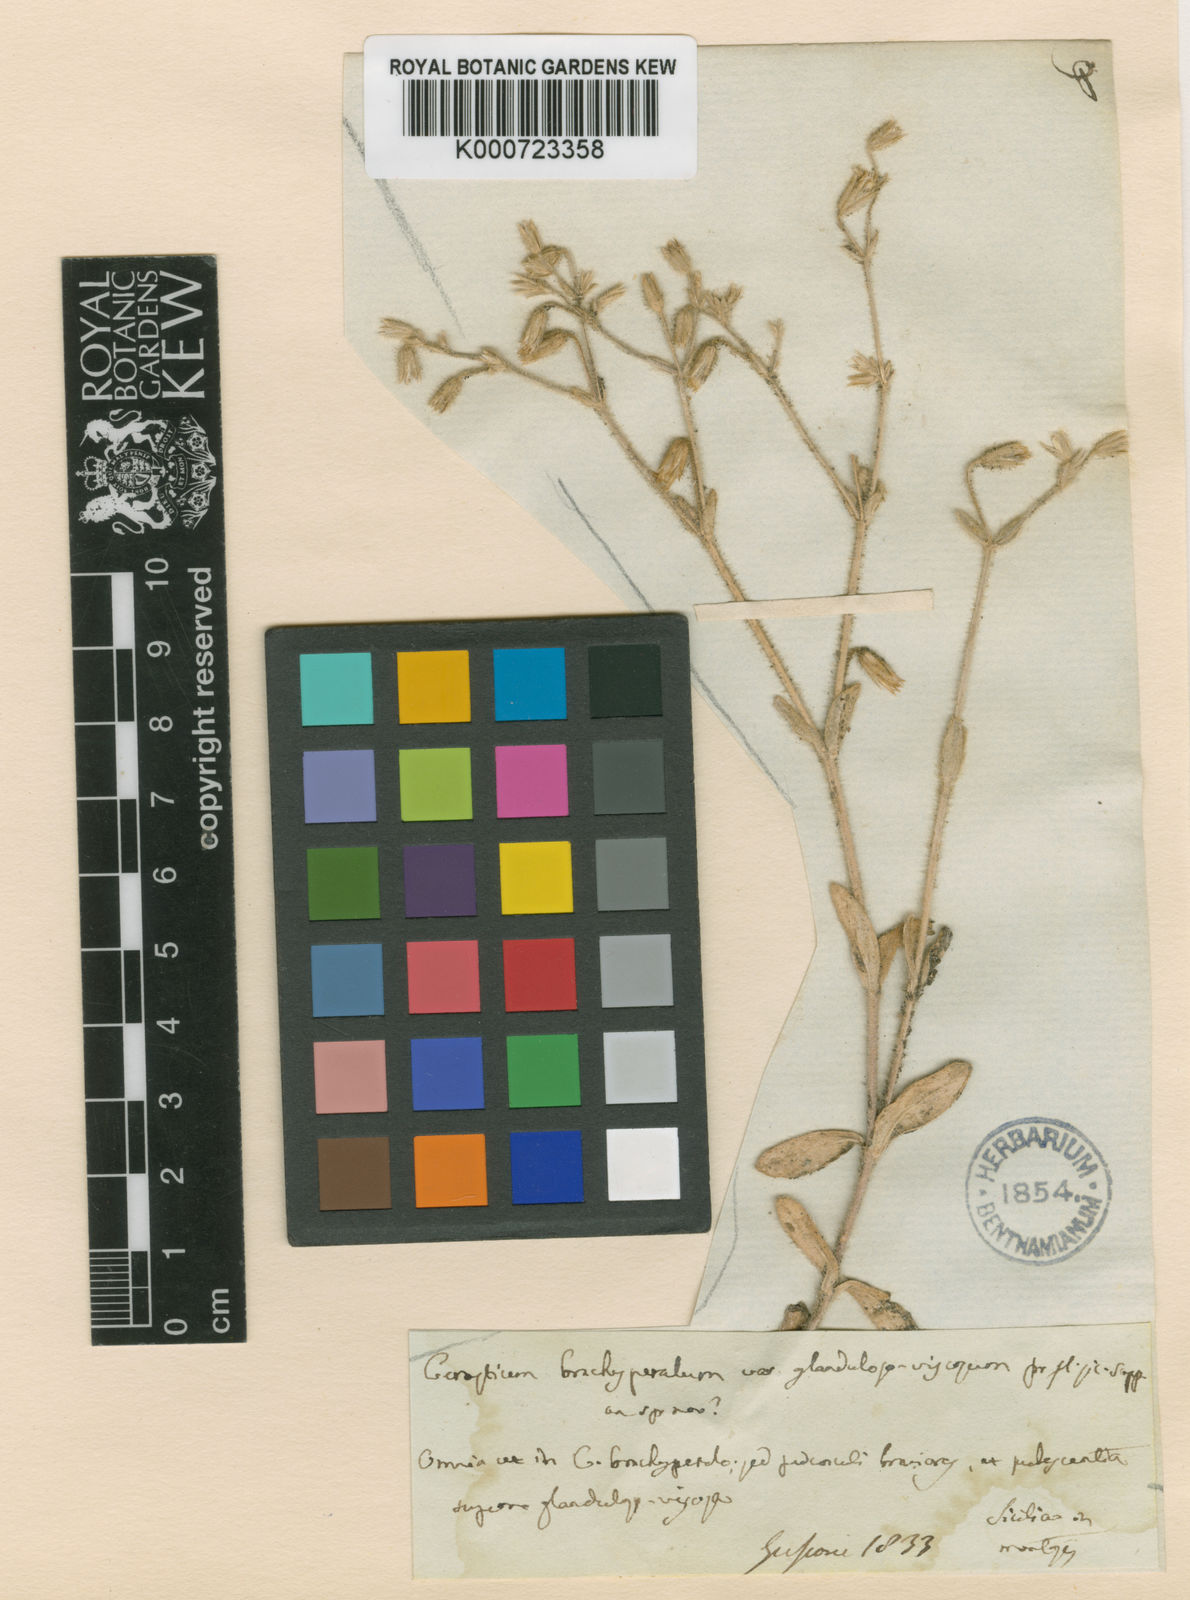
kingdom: Plantae
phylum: Tracheophyta
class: Magnoliopsida
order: Caryophyllales
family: Caryophyllaceae
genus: Cerastium
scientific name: Cerastium
